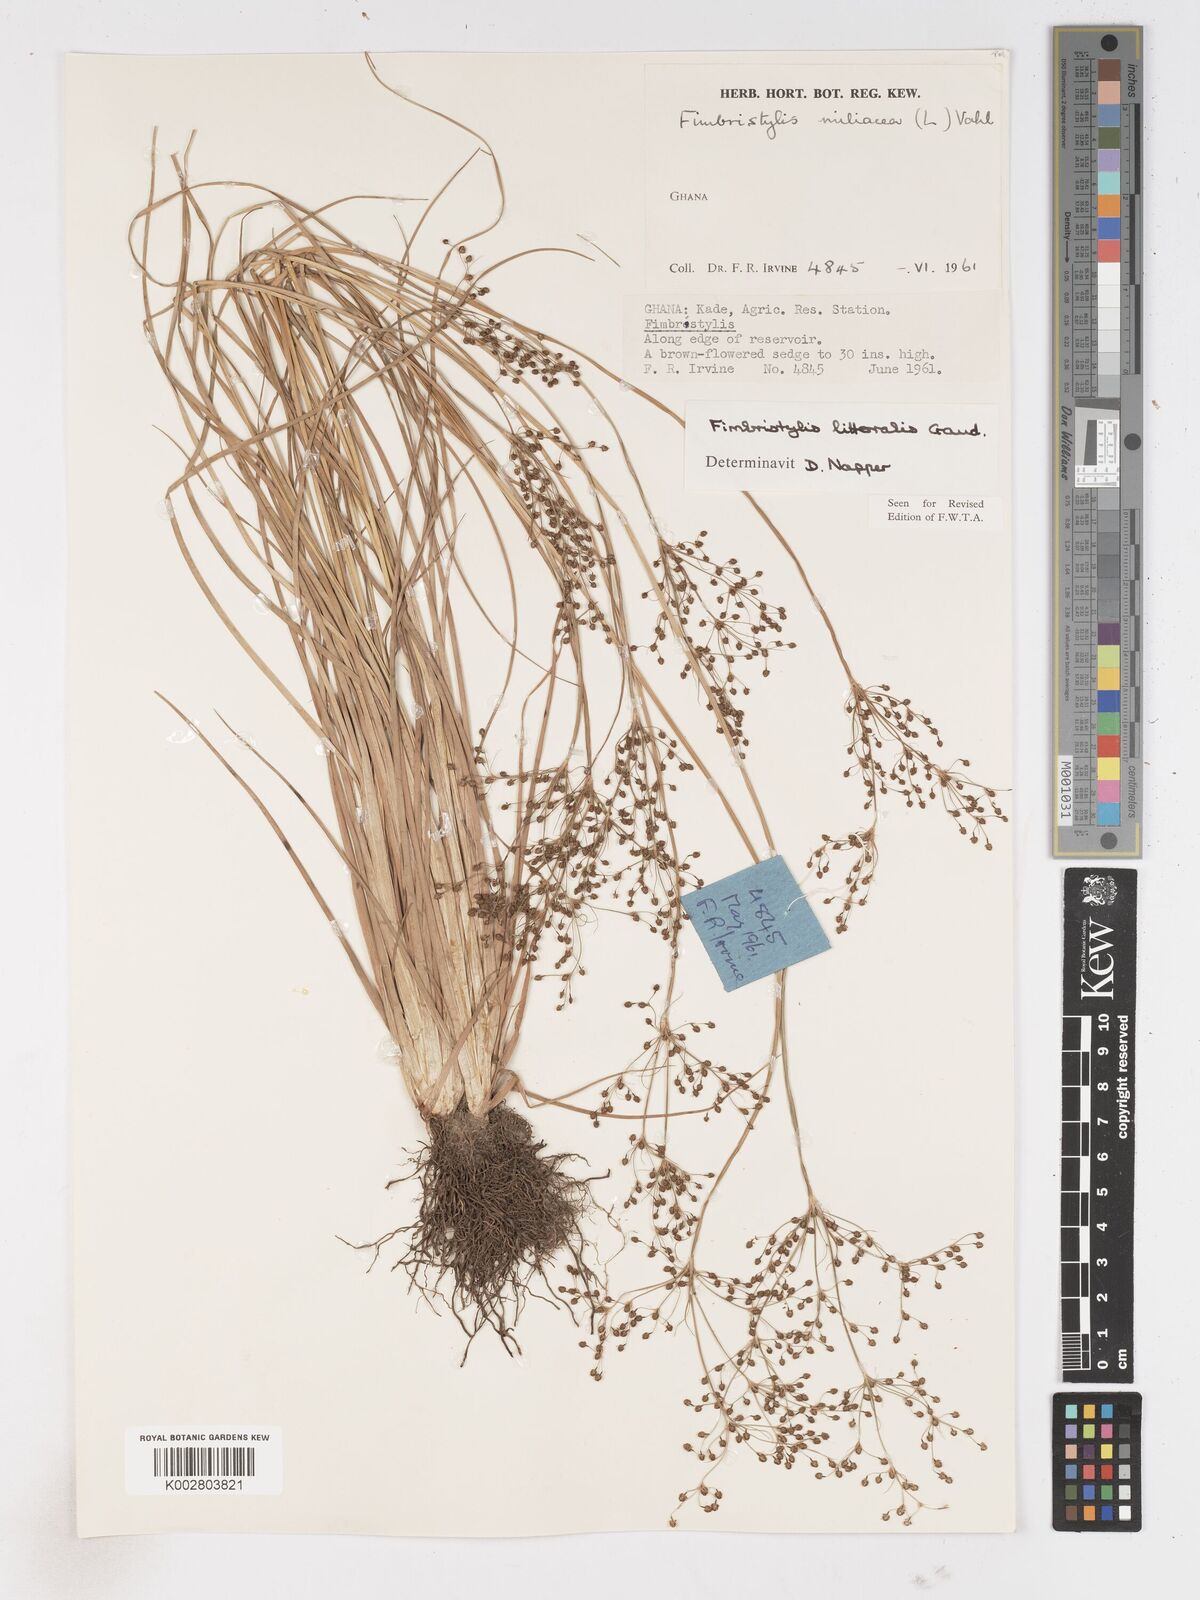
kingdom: Plantae
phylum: Tracheophyta
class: Liliopsida
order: Poales
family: Cyperaceae
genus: Fimbristylis
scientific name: Fimbristylis littoralis
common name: Fimbry
